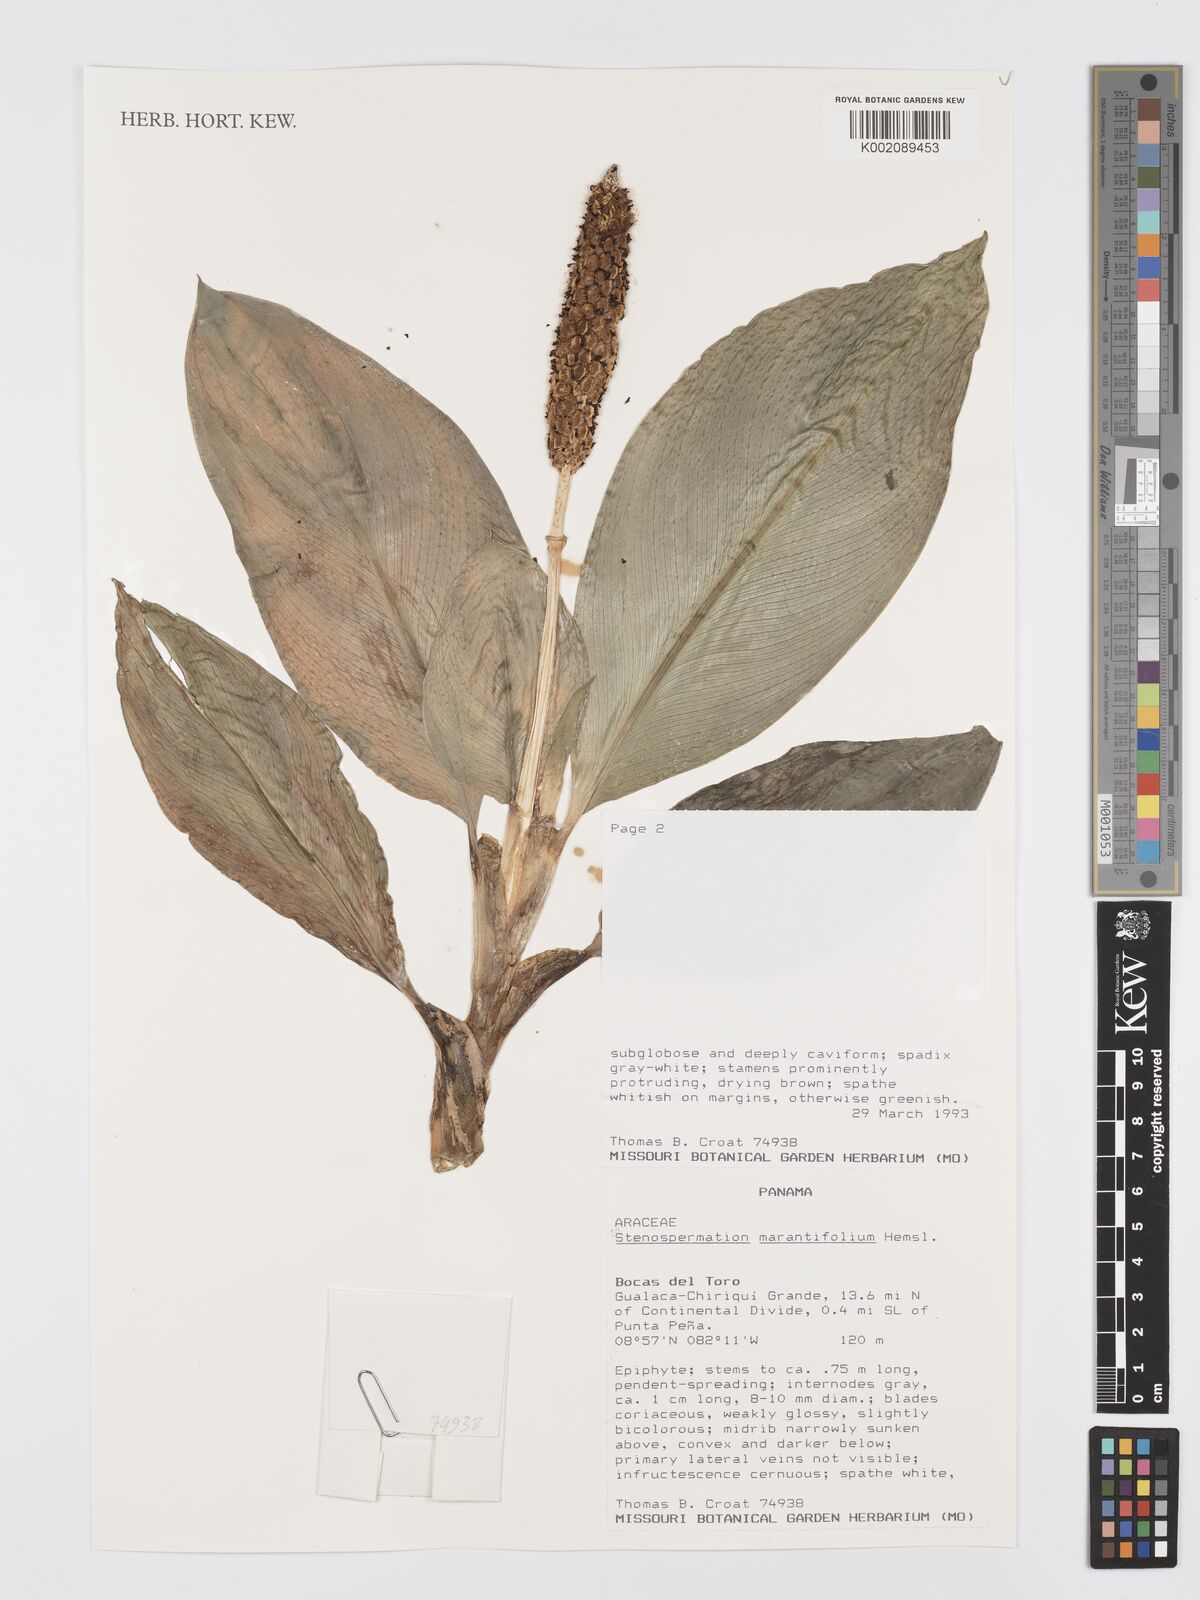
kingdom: Plantae
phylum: Tracheophyta
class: Liliopsida
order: Alismatales
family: Araceae
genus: Stenospermation
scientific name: Stenospermation marantifolium
